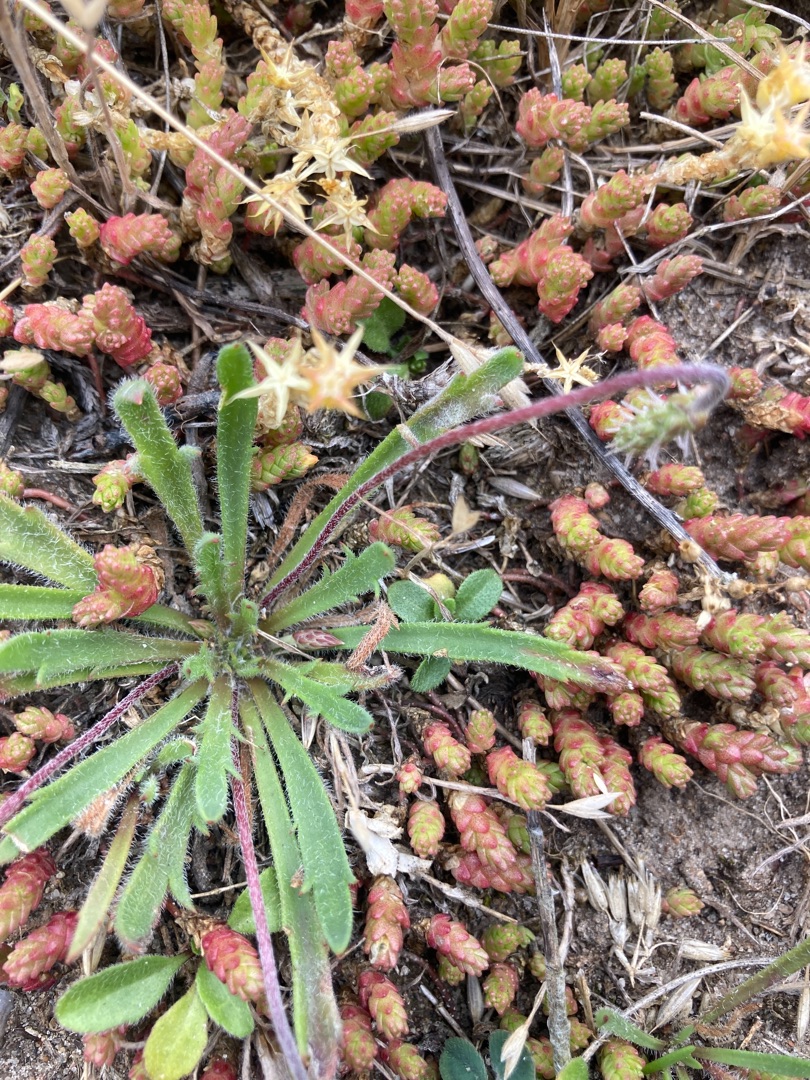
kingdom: Plantae
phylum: Tracheophyta
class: Magnoliopsida
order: Lamiales
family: Plantaginaceae
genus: Plantago
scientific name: Plantago coronopus
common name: Fliget vejbred
